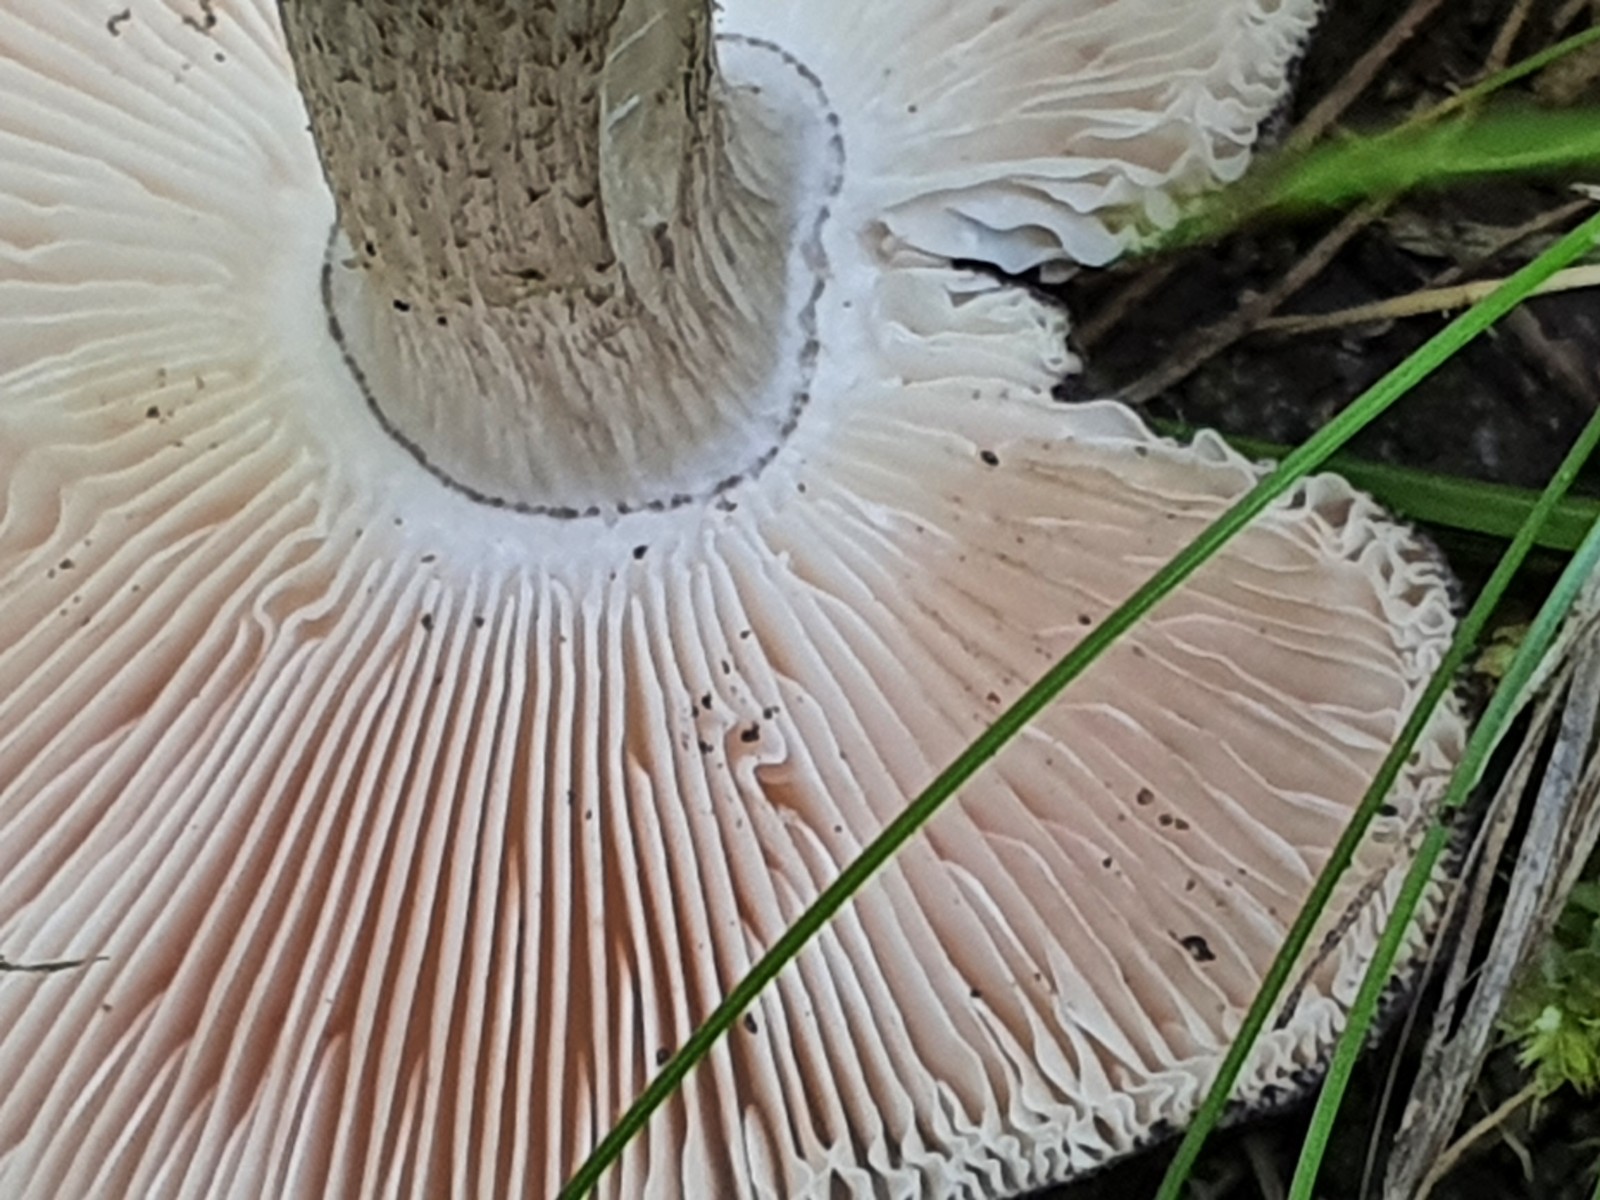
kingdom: Fungi
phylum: Basidiomycota
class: Agaricomycetes
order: Agaricales
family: Tricholomataceae
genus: Megacollybia
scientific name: Megacollybia platyphylla
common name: bredbladet væbnerhat
